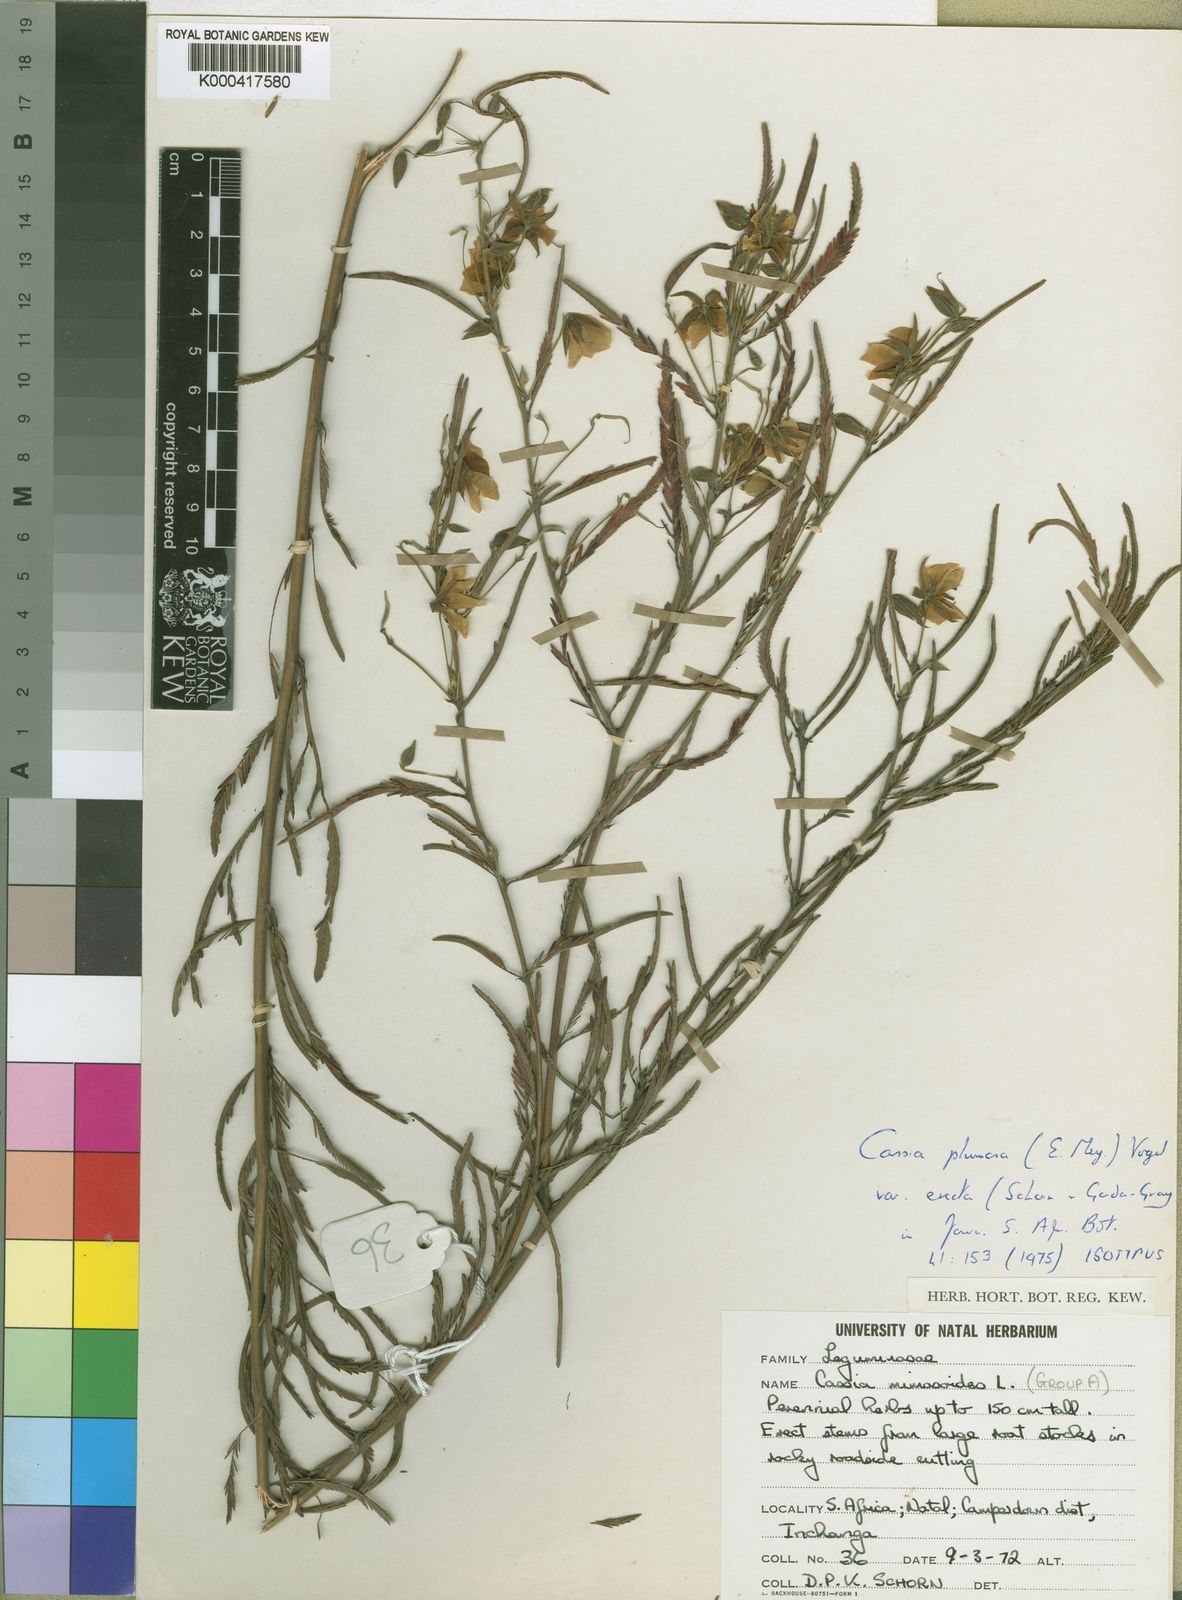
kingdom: Plantae
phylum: Tracheophyta
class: Magnoliopsida
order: Fabales
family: Fabaceae
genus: Chamaecrista
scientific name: Chamaecrista plumosa
